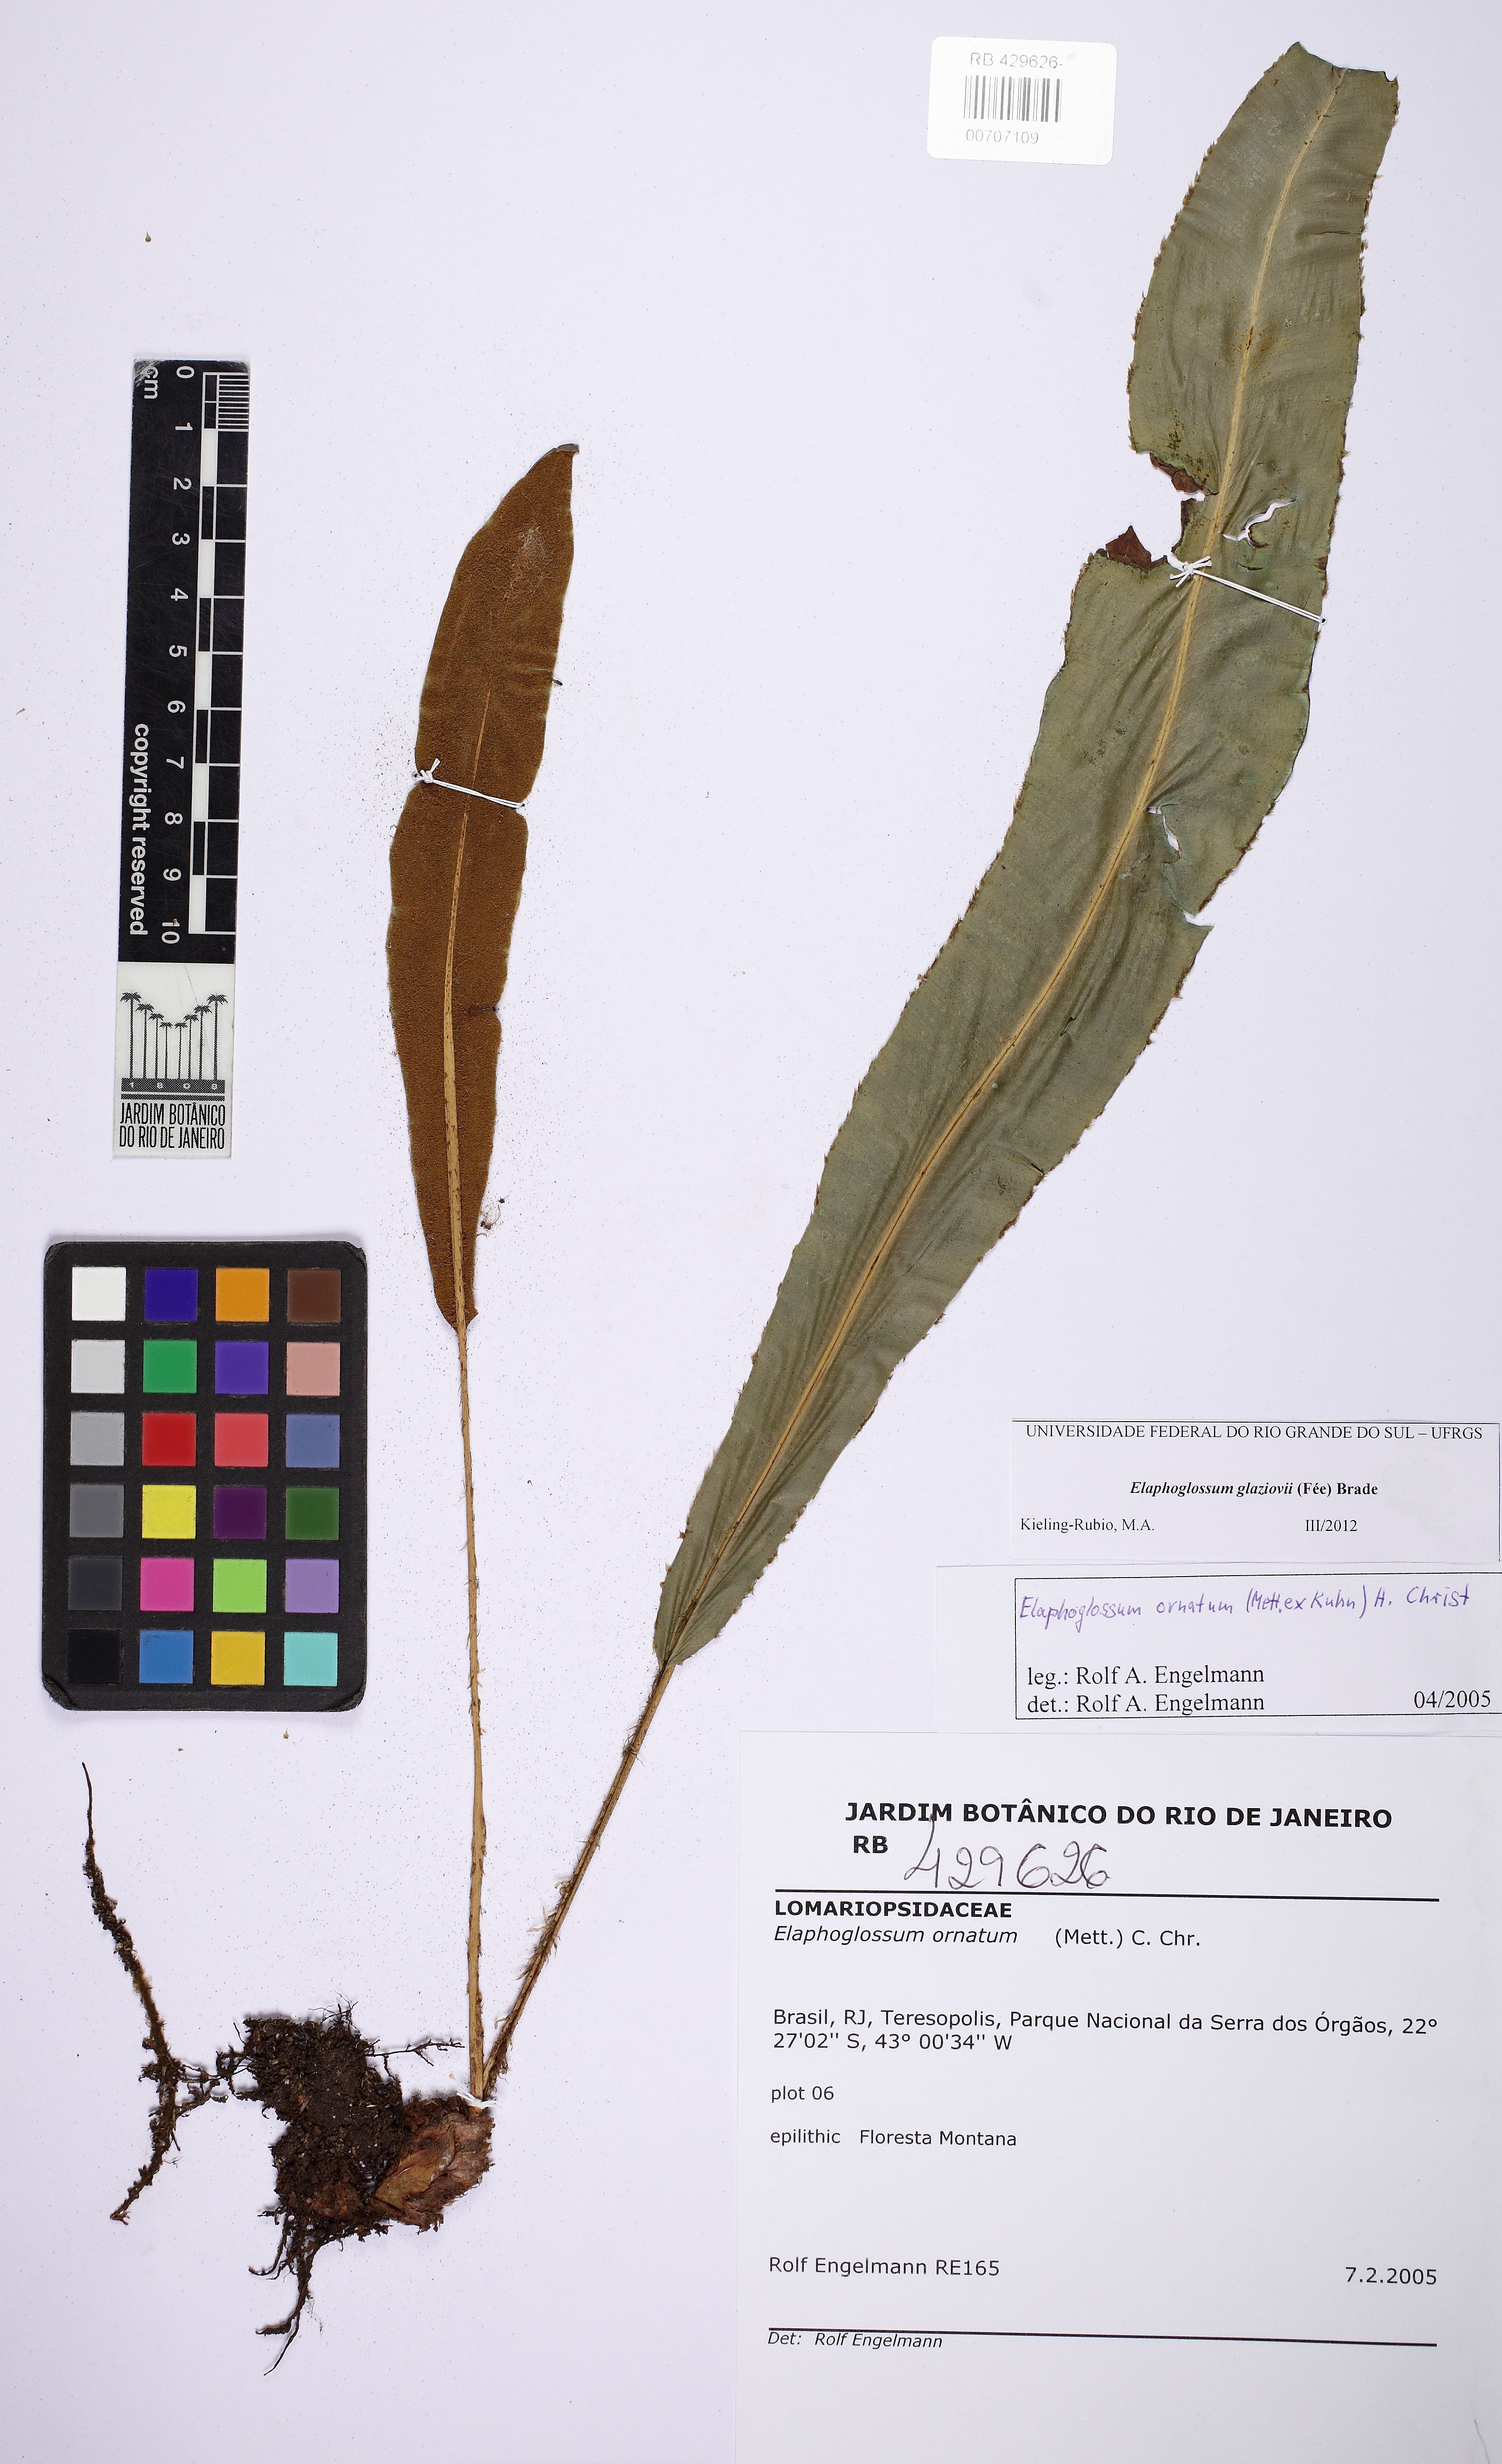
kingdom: Plantae
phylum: Tracheophyta
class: Polypodiopsida
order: Polypodiales
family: Dryopteridaceae
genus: Elaphoglossum
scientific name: Elaphoglossum glaziovii
